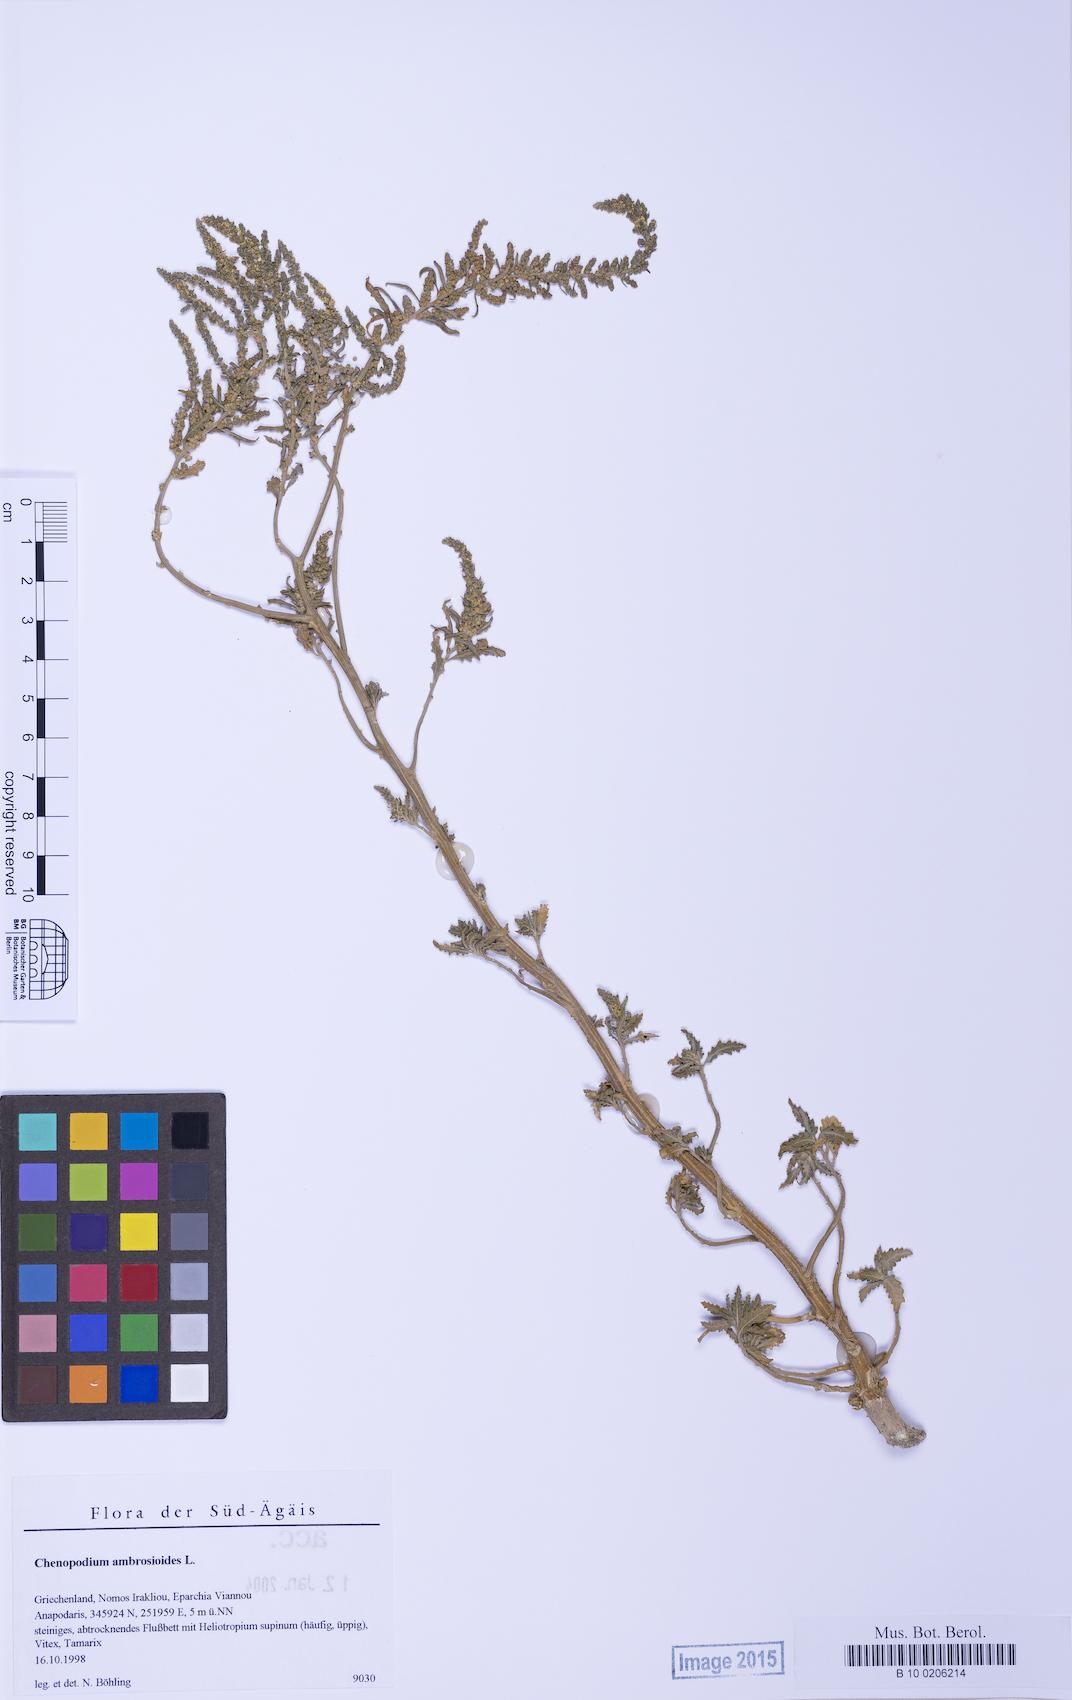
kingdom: Plantae
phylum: Tracheophyta
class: Magnoliopsida
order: Caryophyllales
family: Amaranthaceae
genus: Dysphania
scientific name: Dysphania ambrosioides
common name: Wormseed
